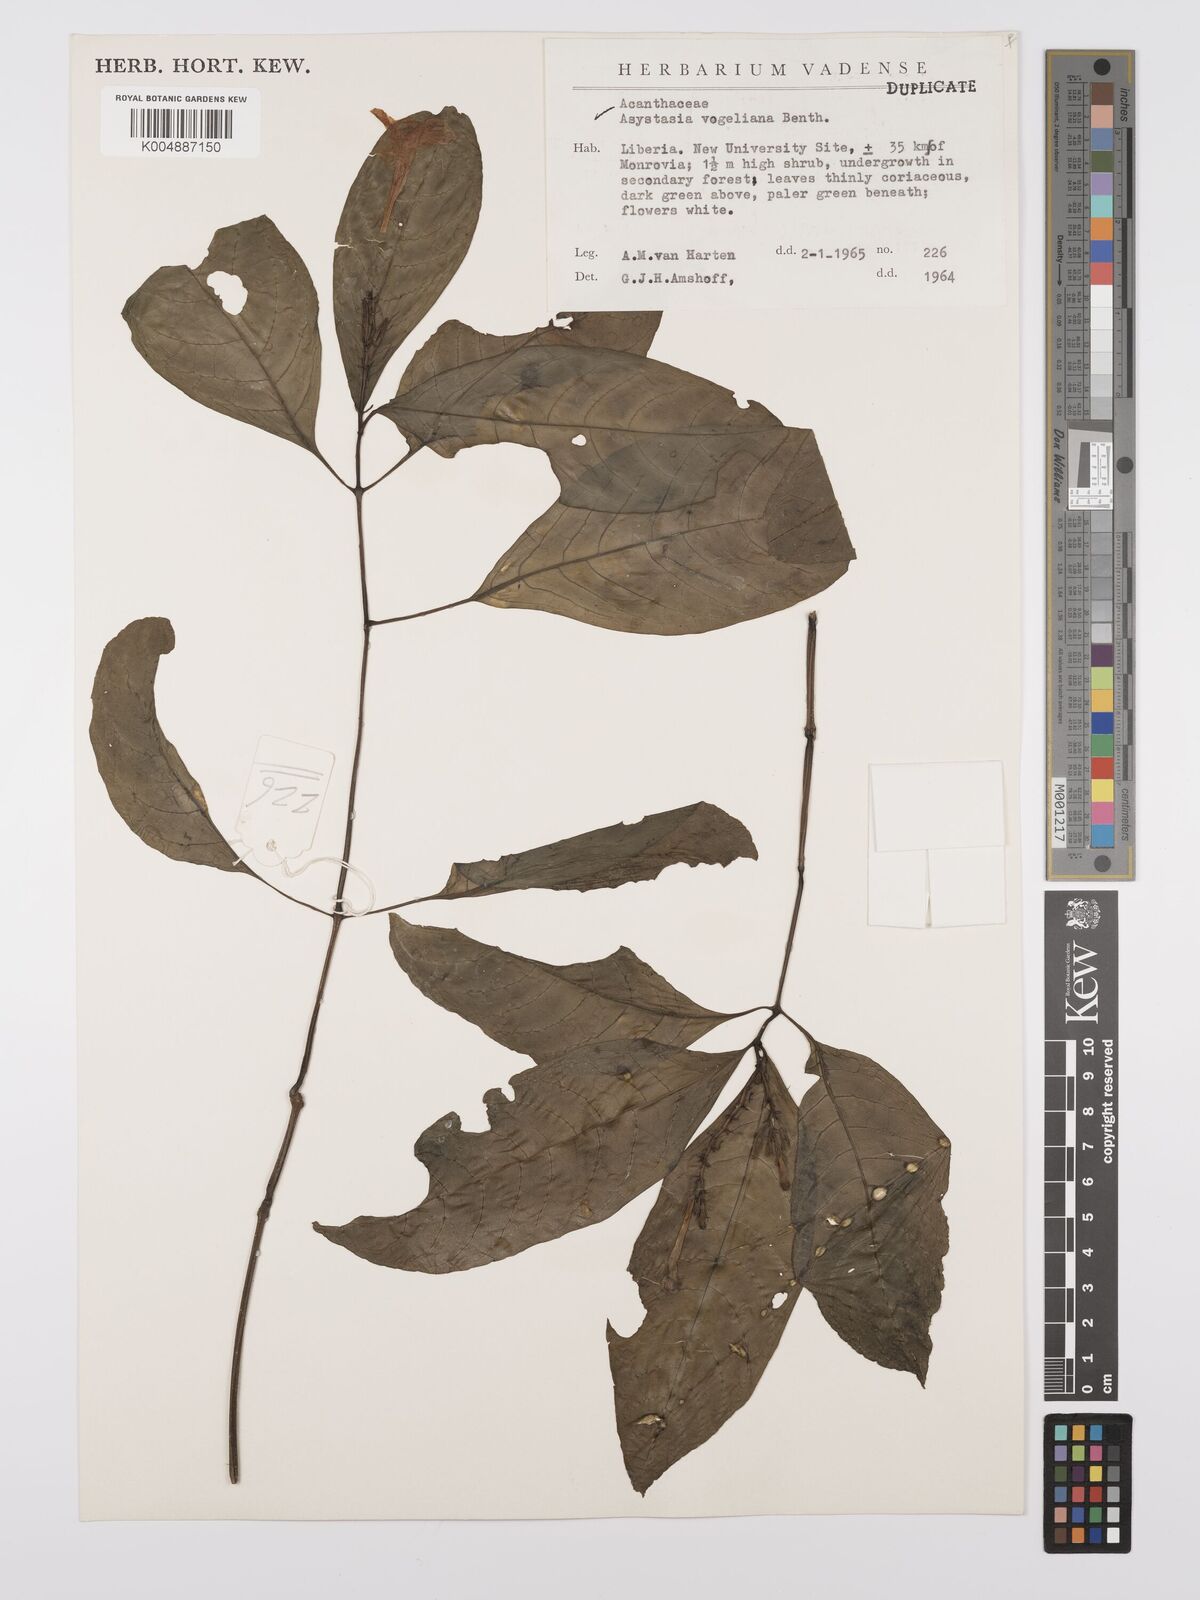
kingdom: Plantae
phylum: Tracheophyta
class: Magnoliopsida
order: Lamiales
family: Acanthaceae
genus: Asystasia
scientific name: Asystasia vogeliana
